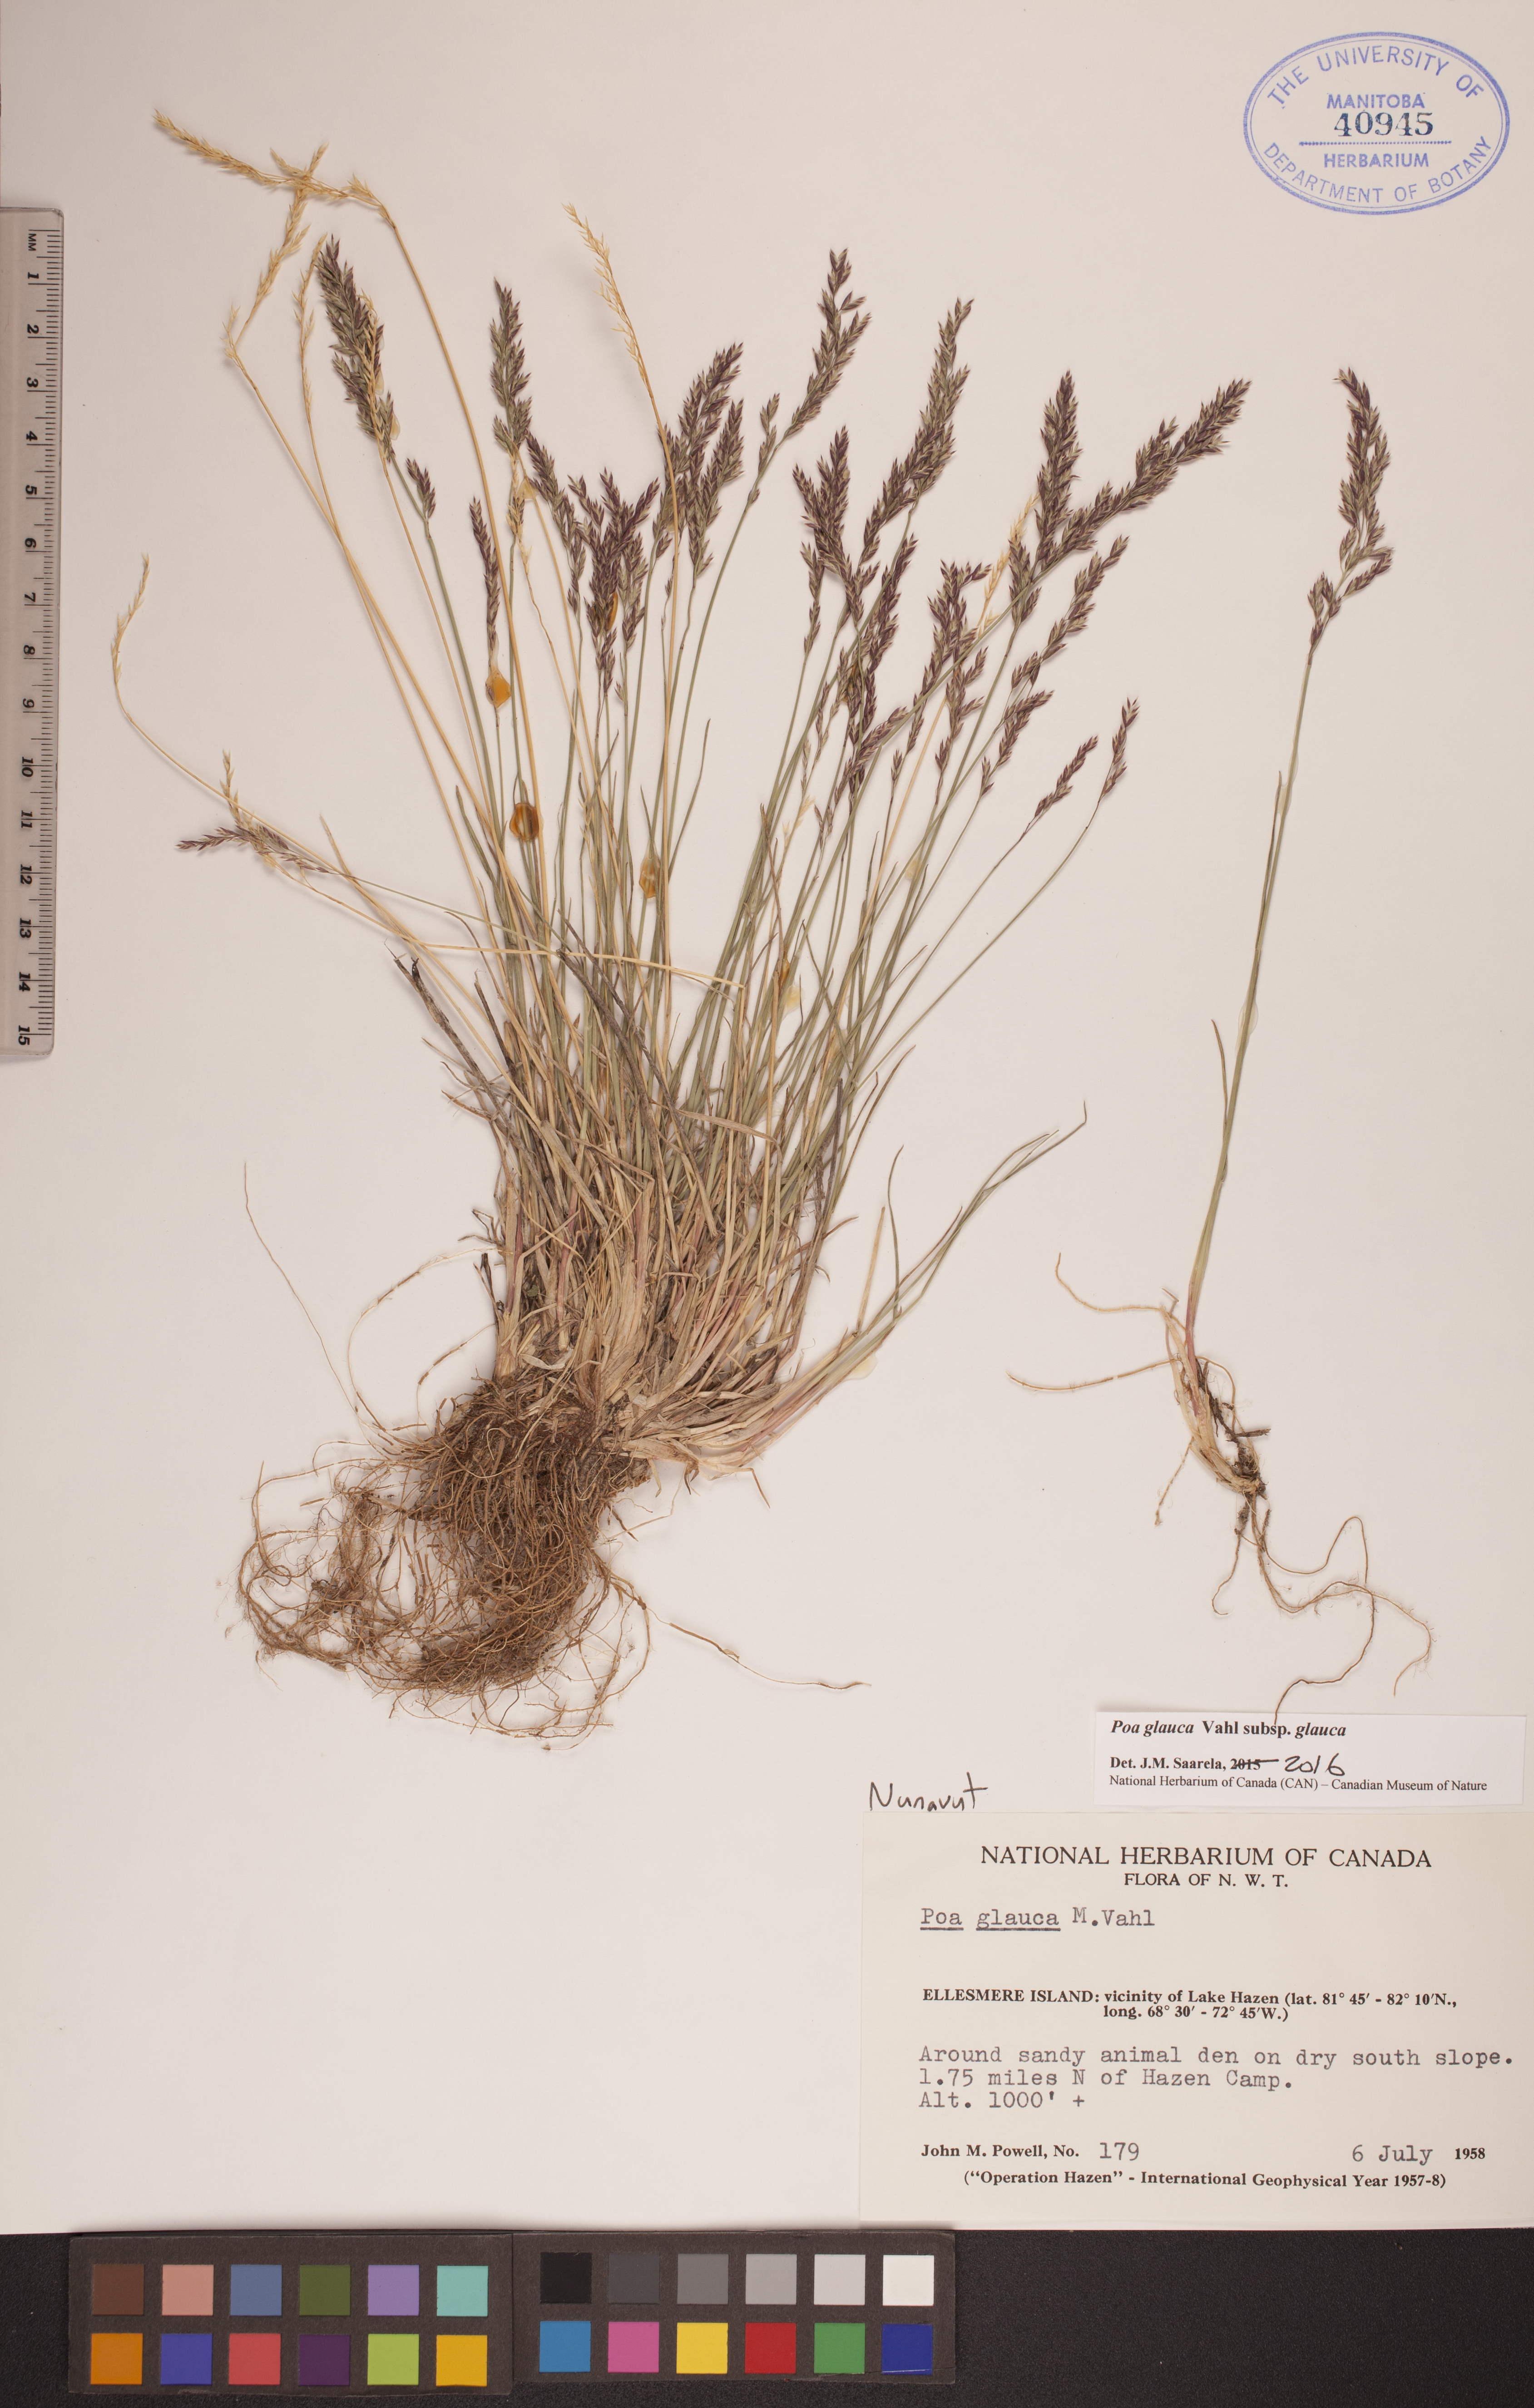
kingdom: Plantae
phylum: Tracheophyta
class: Liliopsida
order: Poales
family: Poaceae
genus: Poa
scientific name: Poa glauca
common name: Glaucous bluegrass
